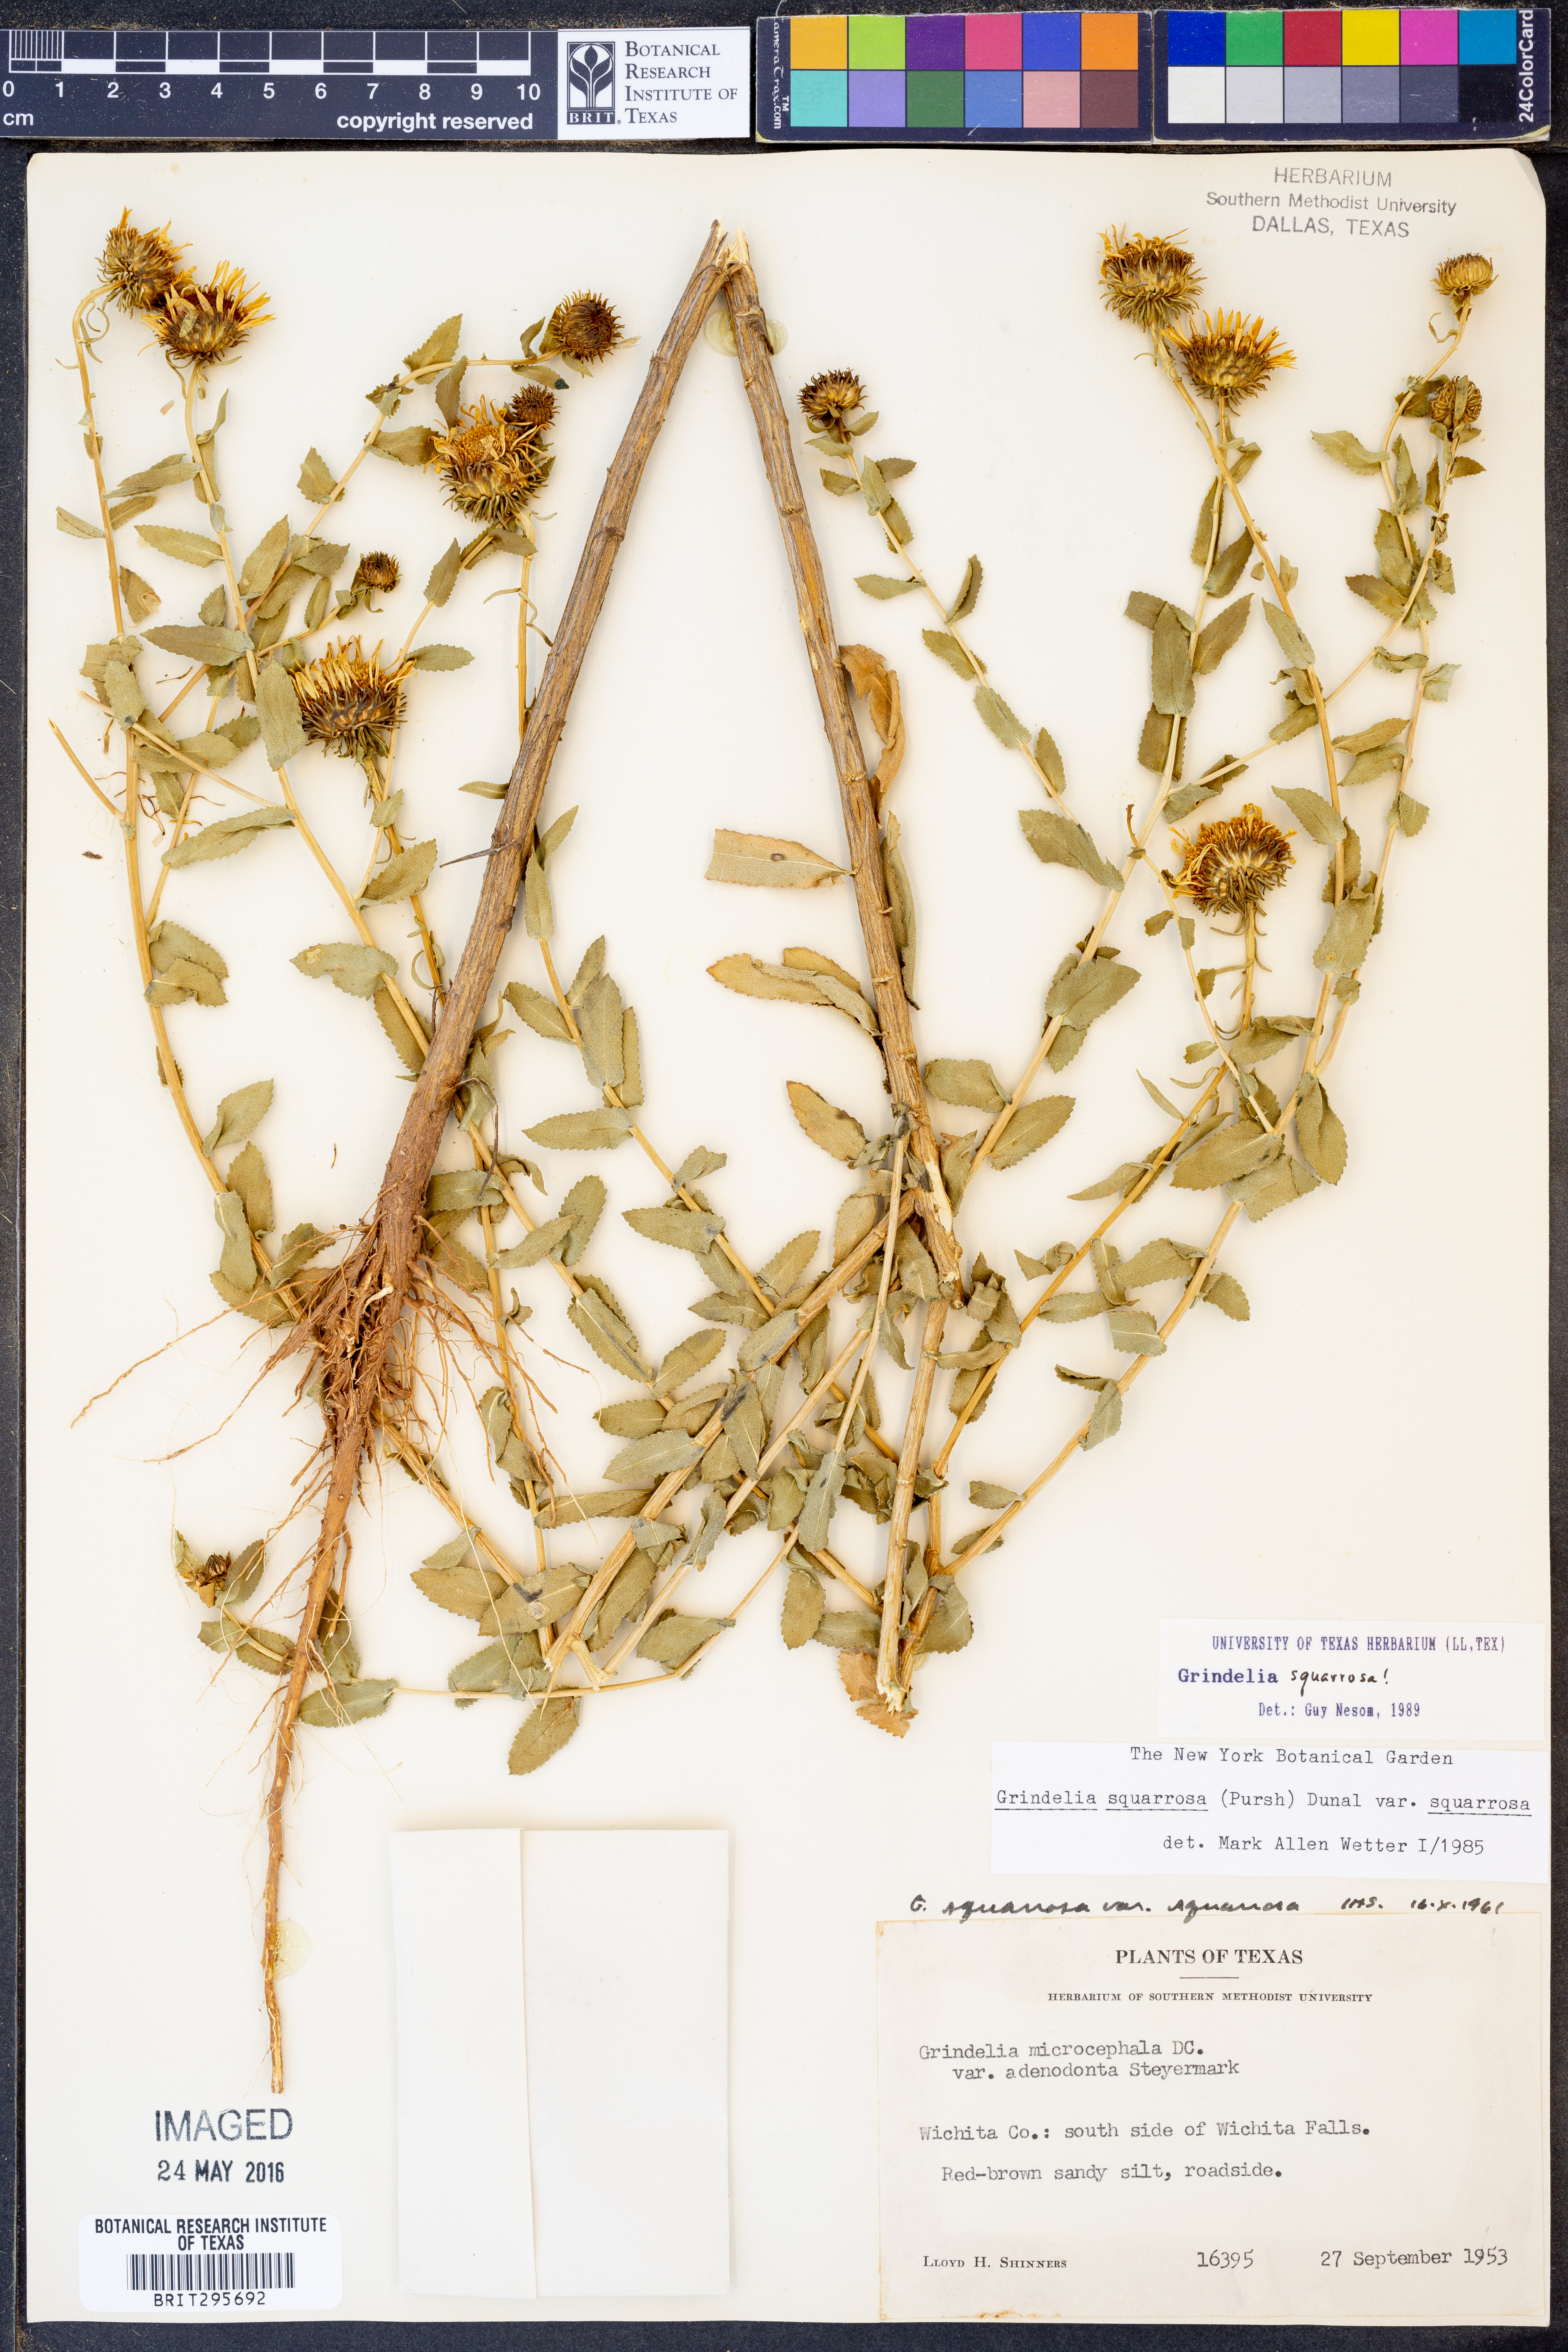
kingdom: Plantae
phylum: Tracheophyta
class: Magnoliopsida
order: Asterales
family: Asteraceae
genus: Grindelia
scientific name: Grindelia squarrosa
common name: Curly-cup gumweed
